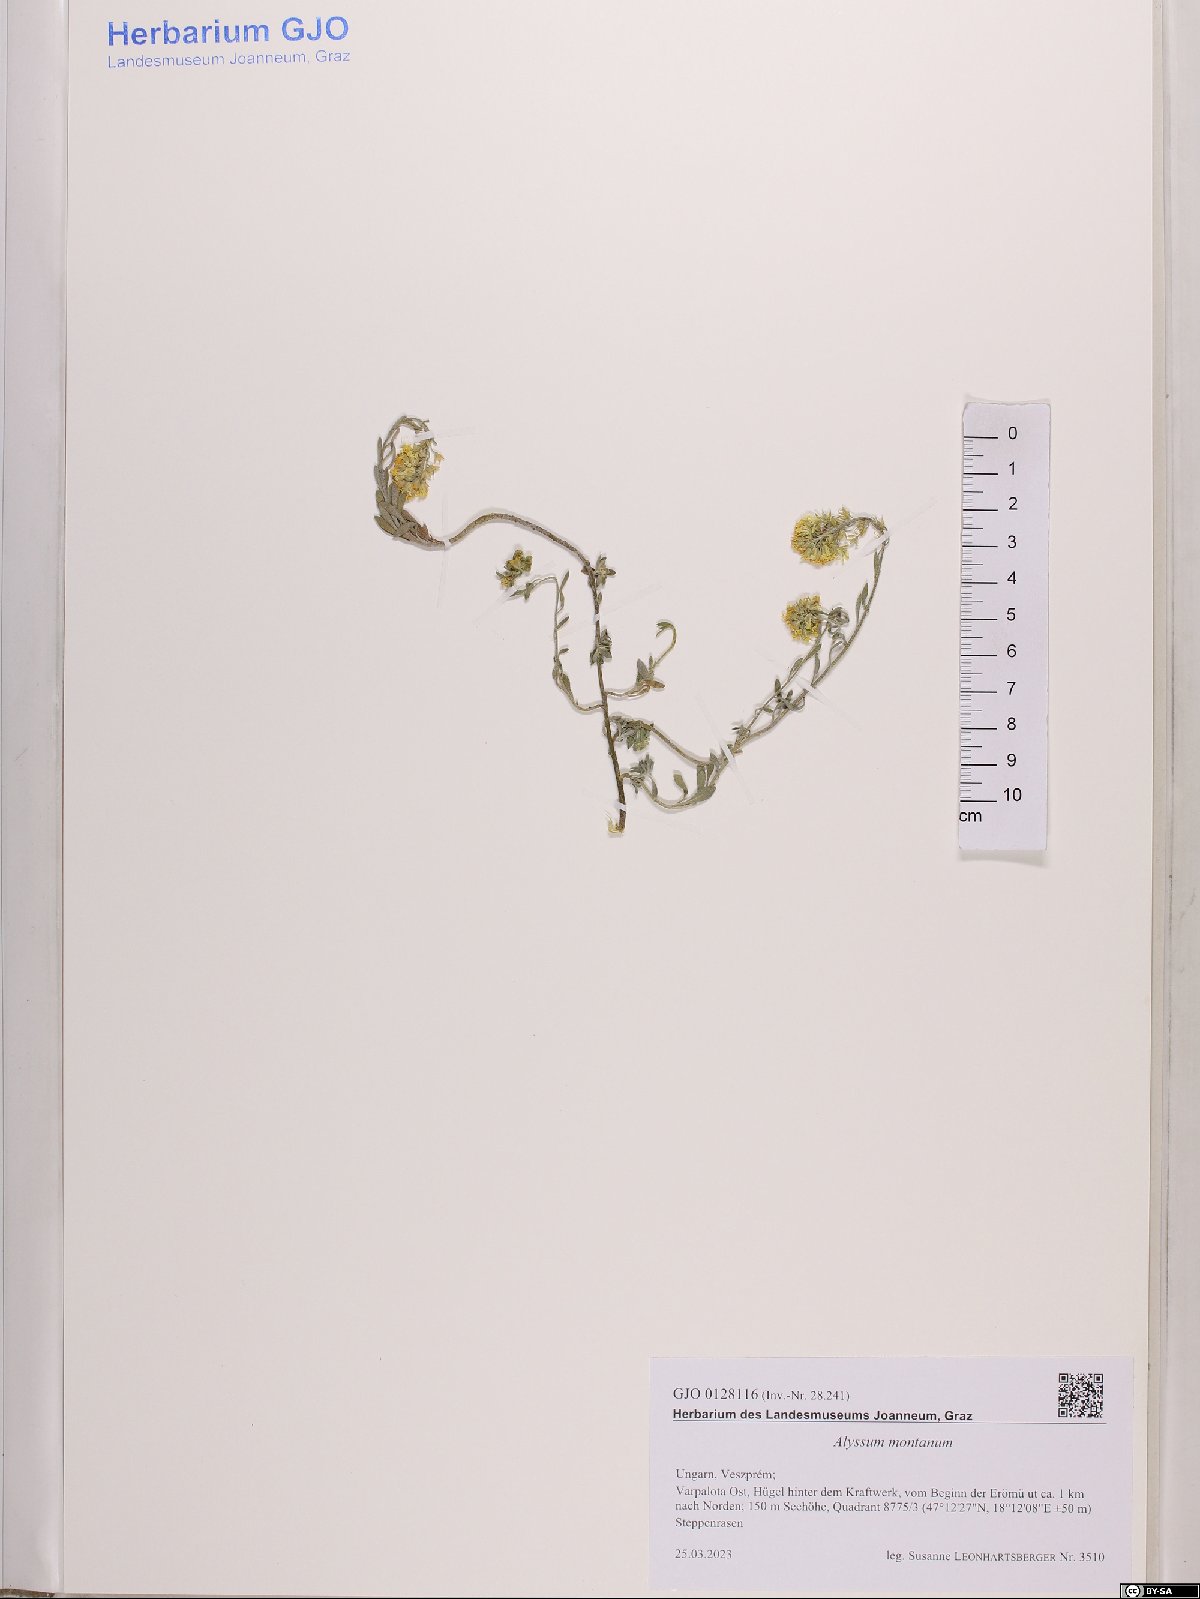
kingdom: Plantae
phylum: Tracheophyta
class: Magnoliopsida
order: Brassicales
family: Brassicaceae
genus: Alyssum
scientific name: Alyssum montanum
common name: Mountain alison
